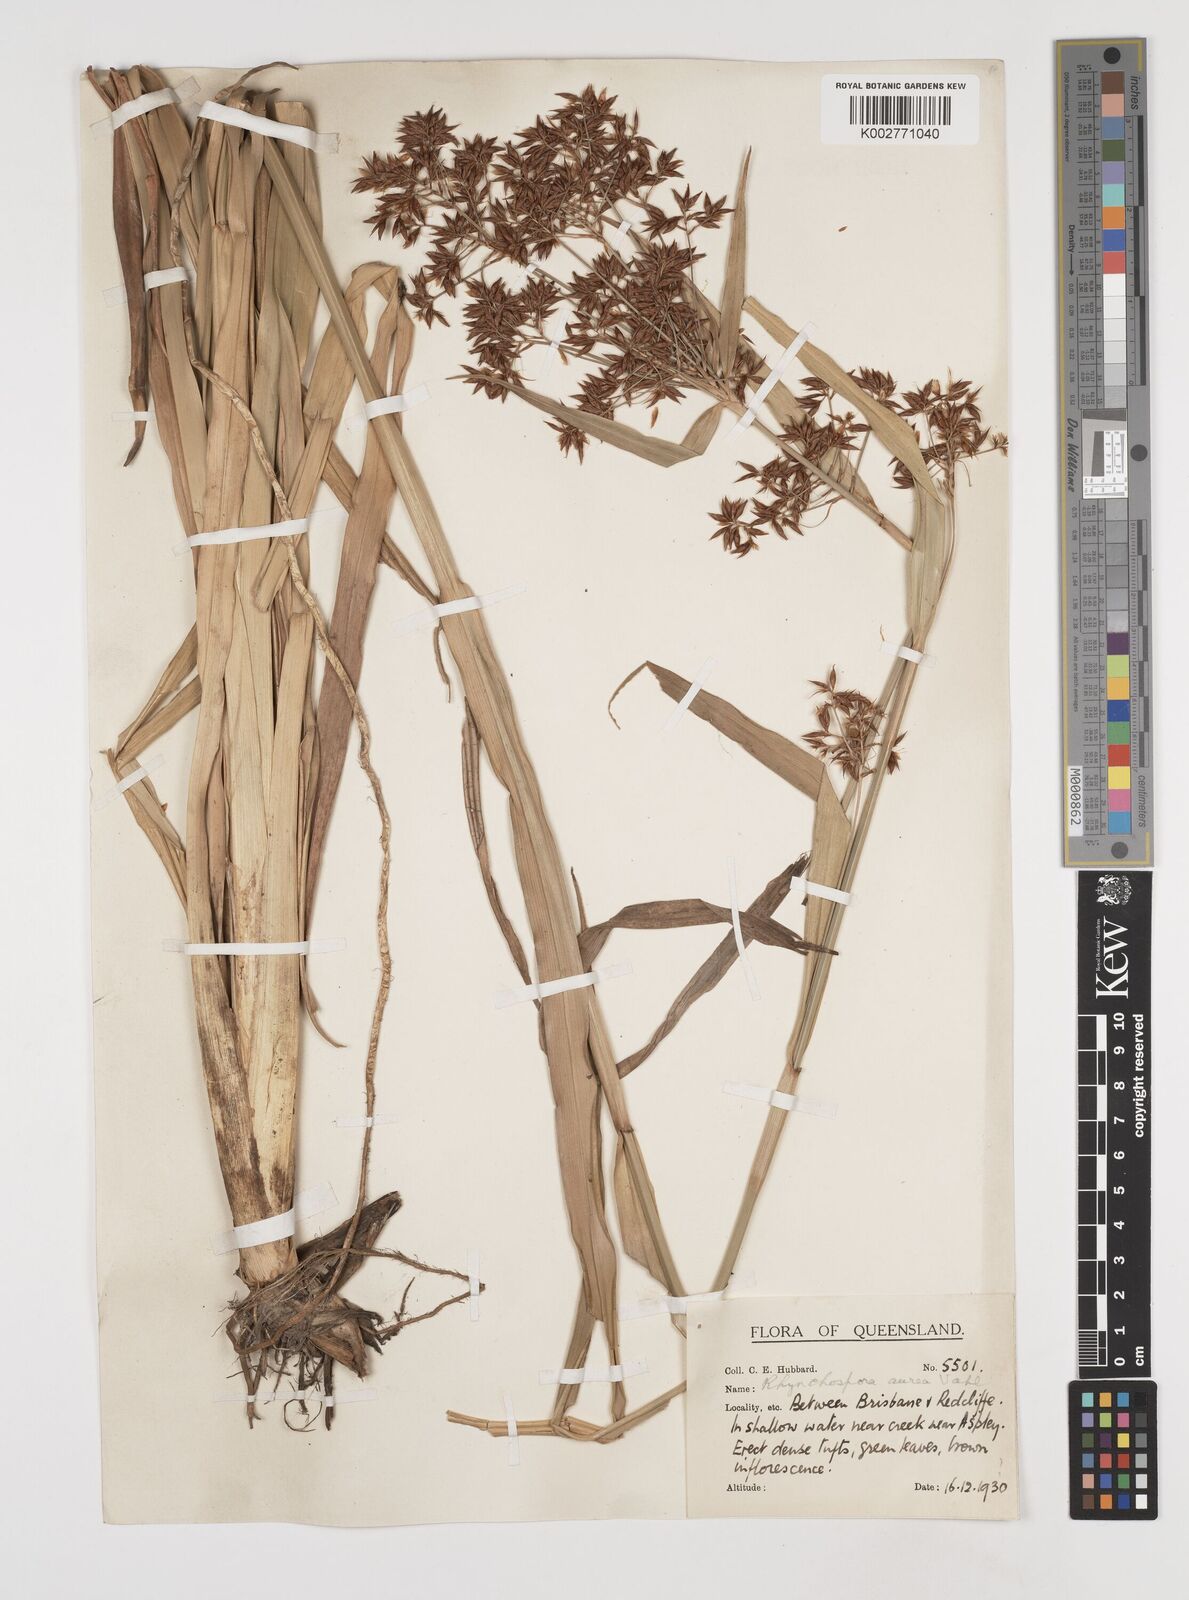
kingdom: Plantae
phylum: Tracheophyta
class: Liliopsida
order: Poales
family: Cyperaceae
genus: Rhynchospora
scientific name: Rhynchospora corymbosa
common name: Golden beak sedge
